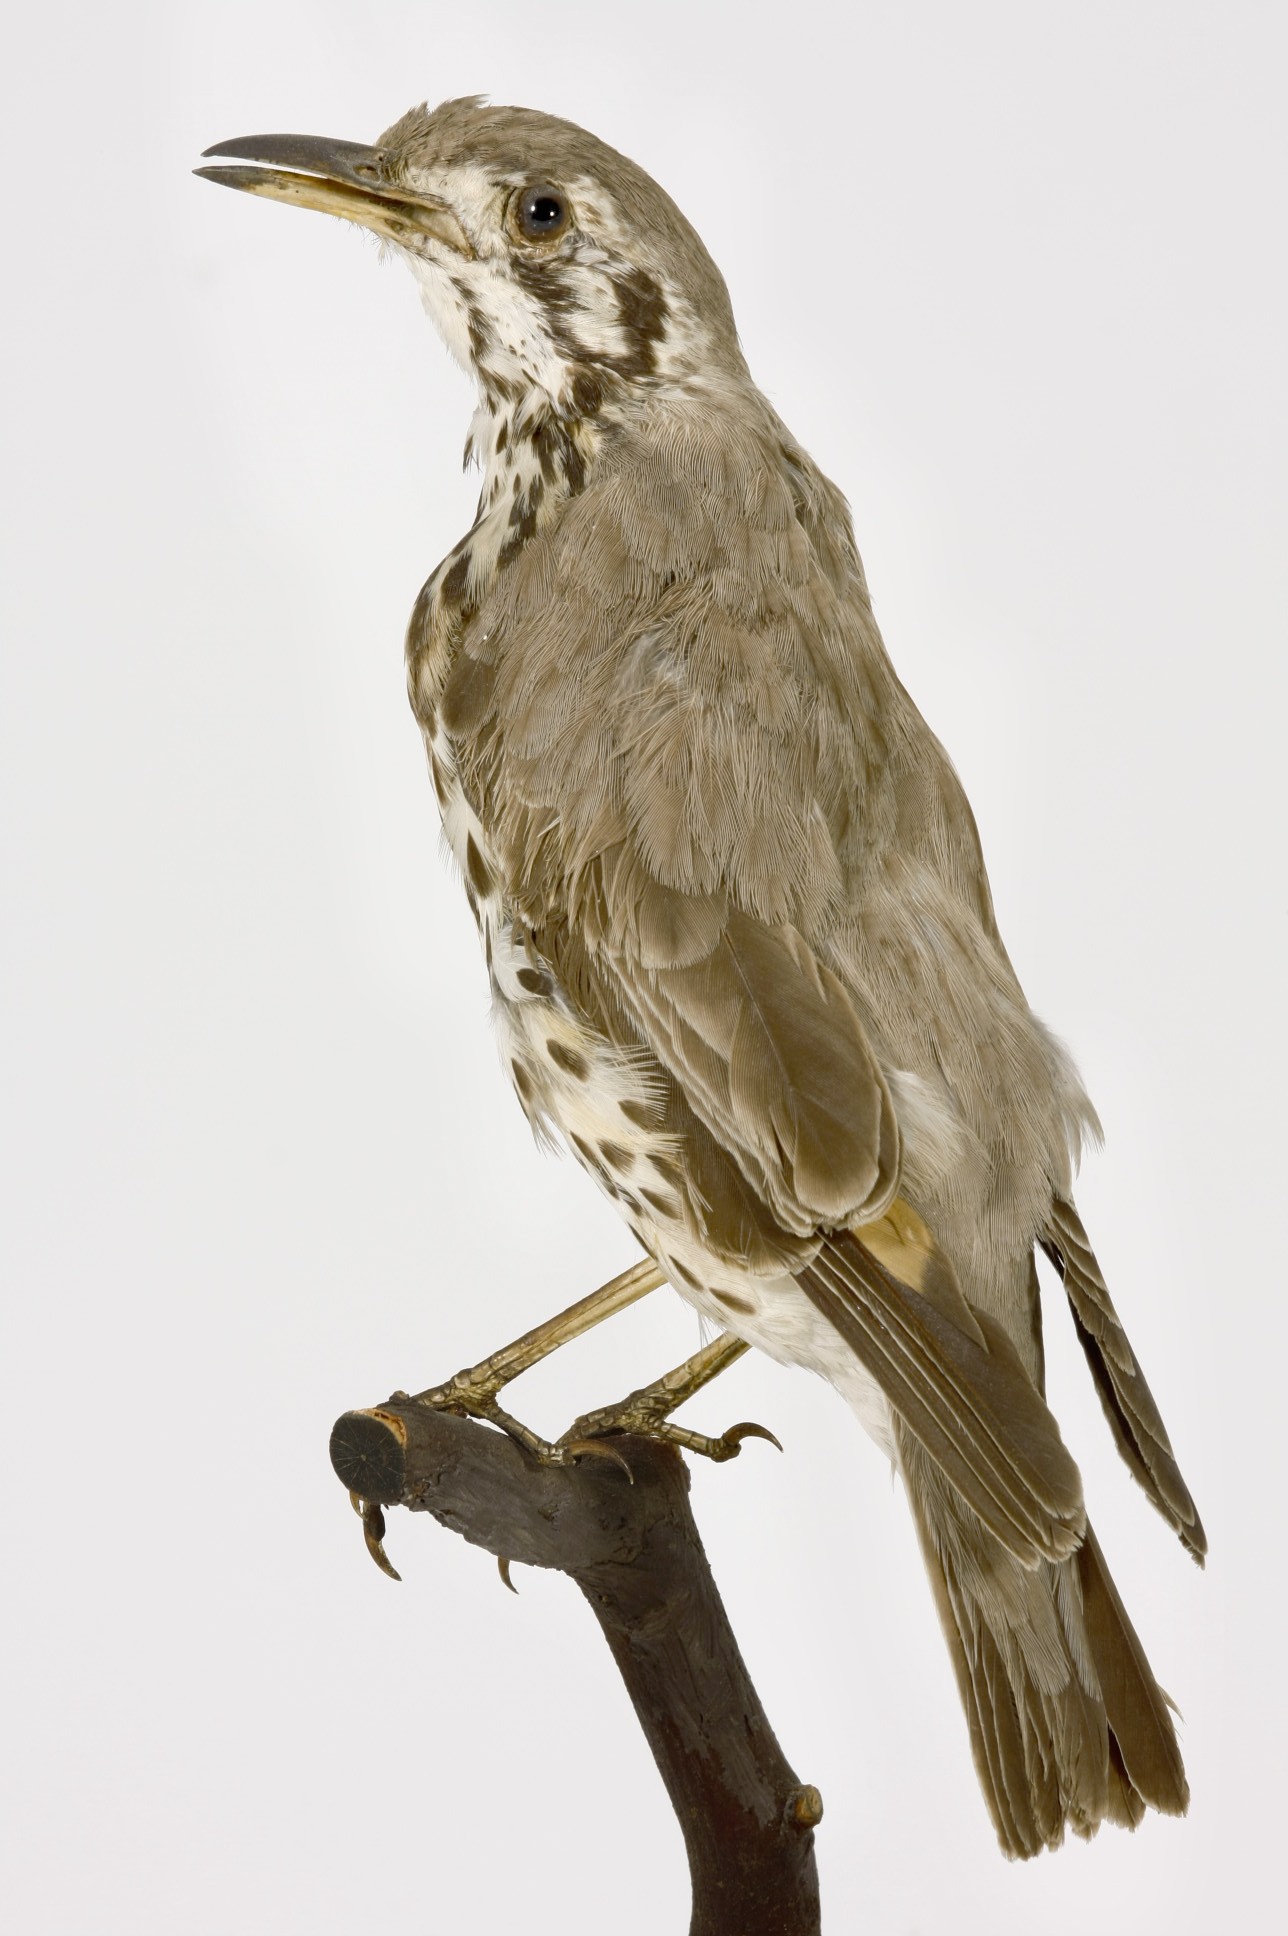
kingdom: Animalia
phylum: Chordata
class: Aves
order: Passeriformes
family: Turdidae
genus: Psophocichla
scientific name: Psophocichla litsitsirupa
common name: Groundscraper thrush
